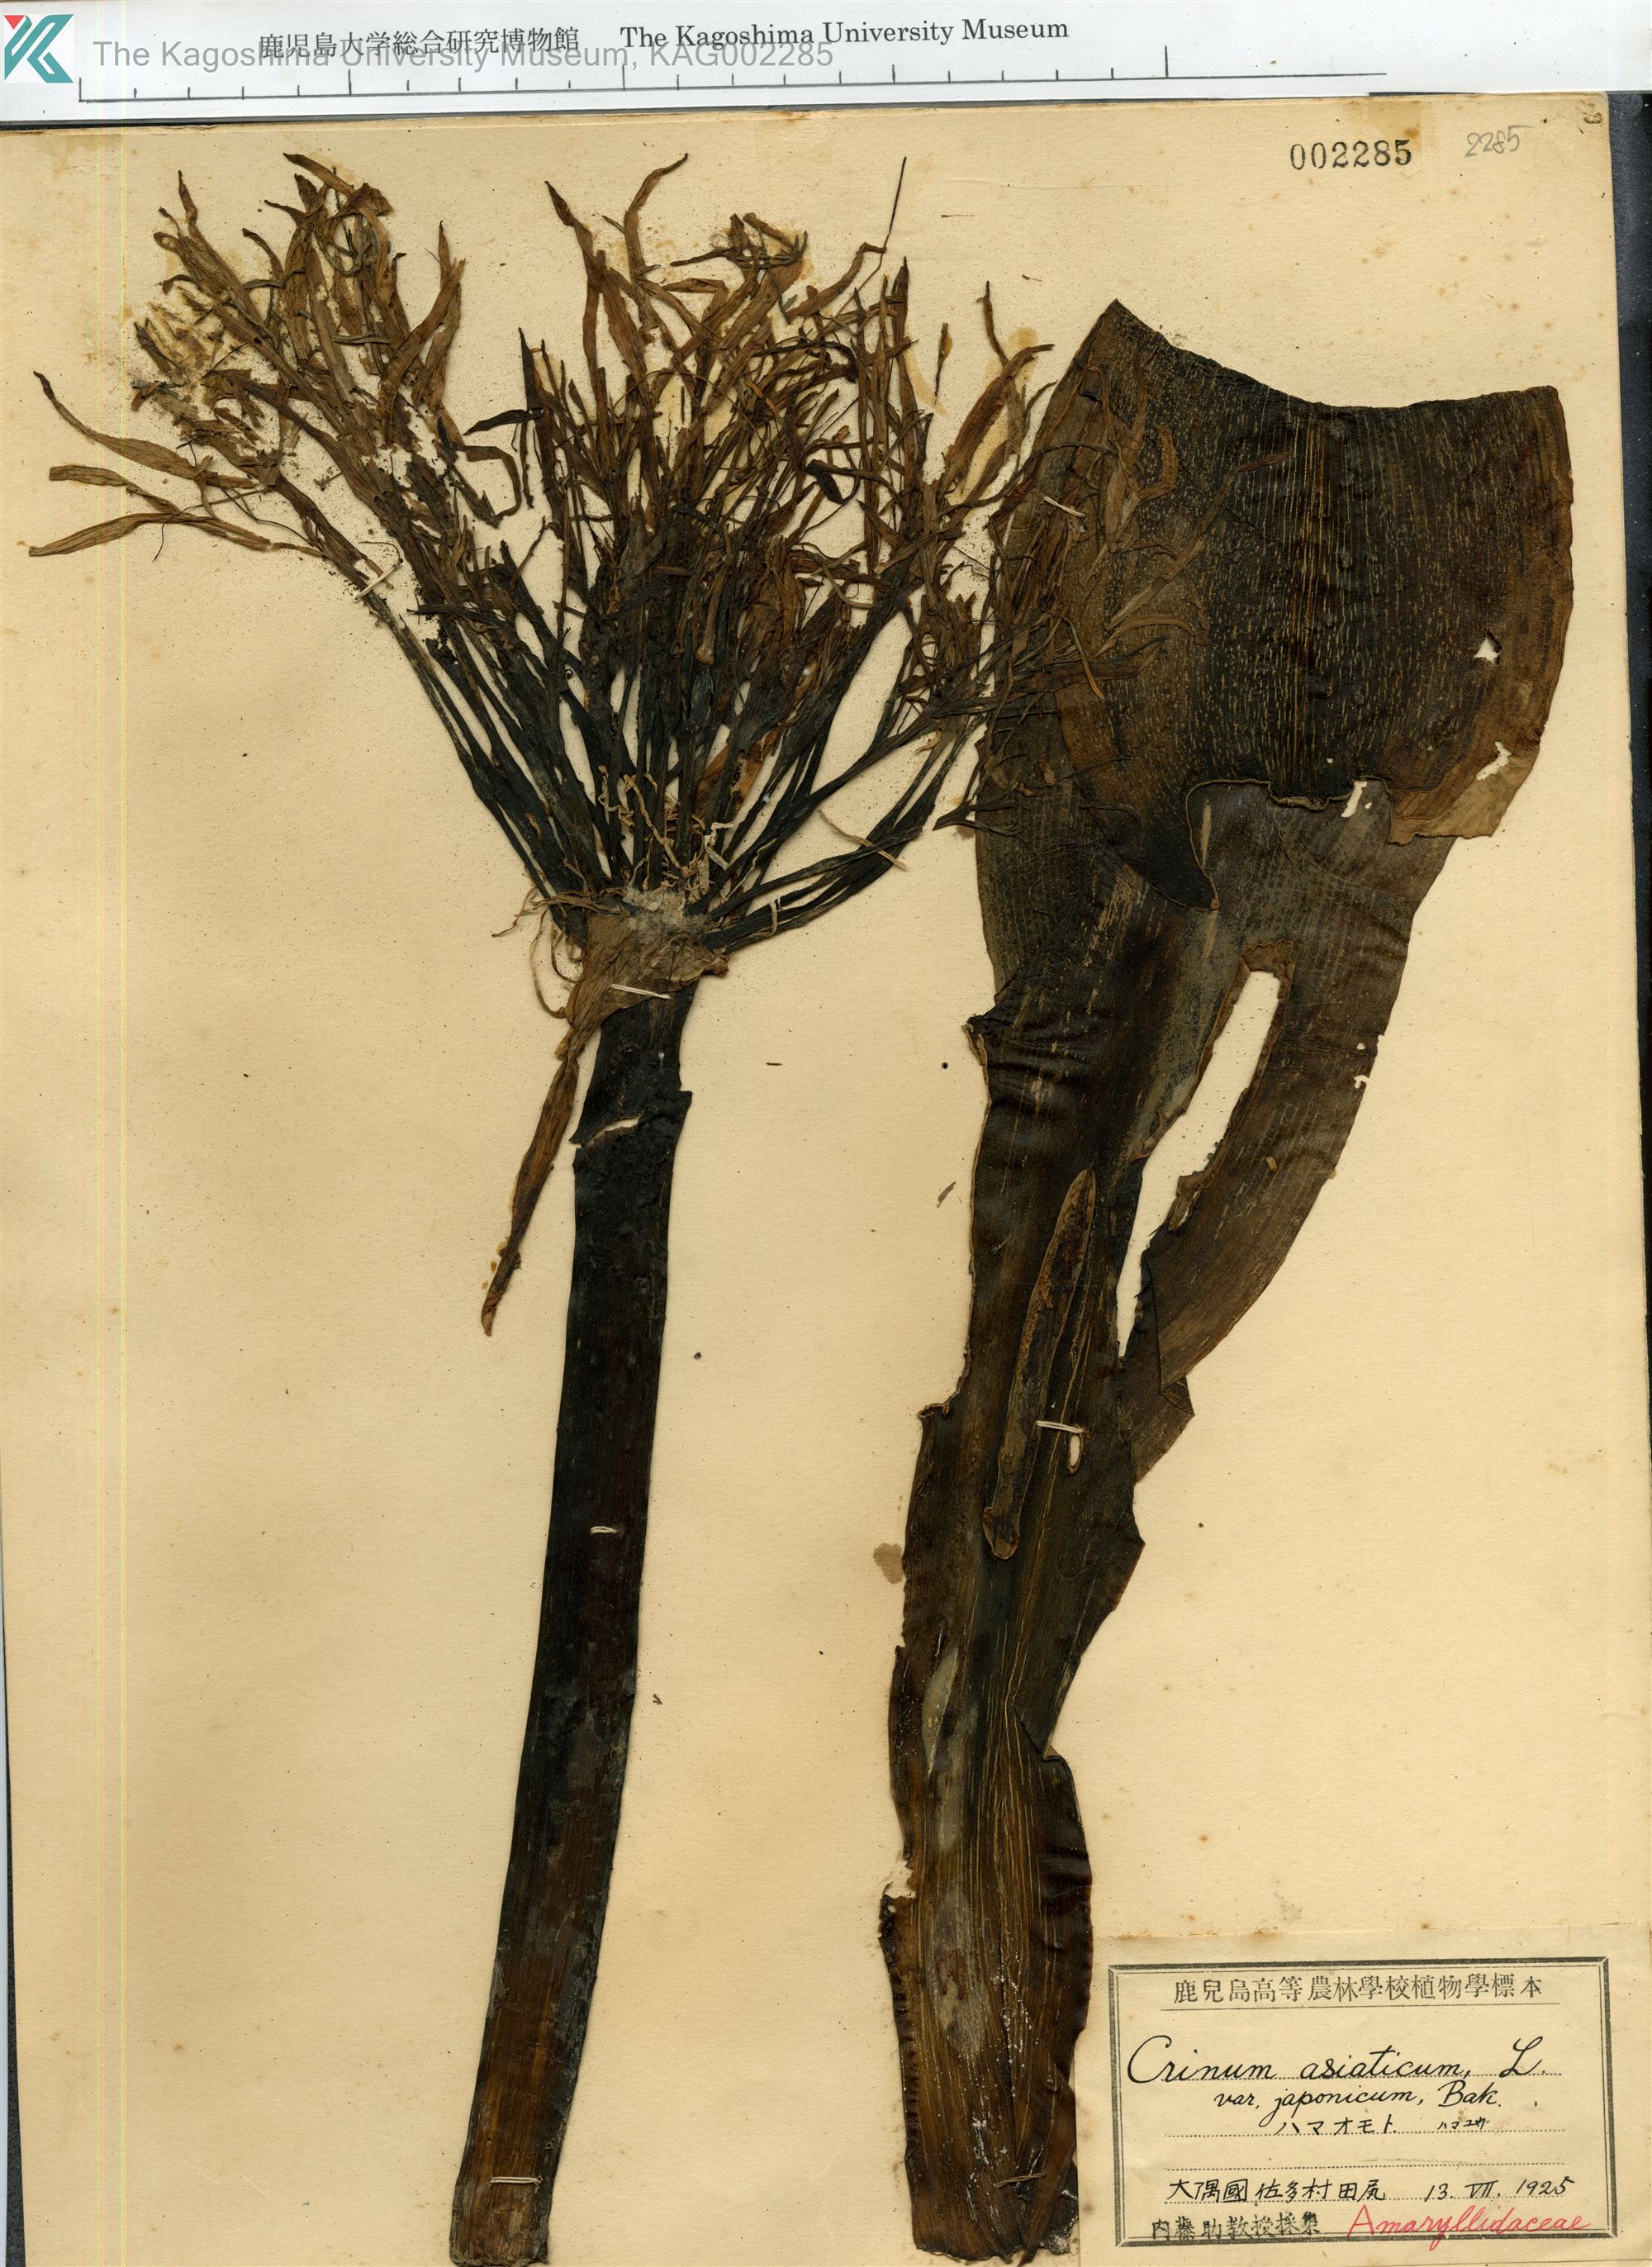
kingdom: Plantae
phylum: Tracheophyta
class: Liliopsida
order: Asparagales
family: Amaryllidaceae
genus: Crinum
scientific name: Crinum asiaticum
